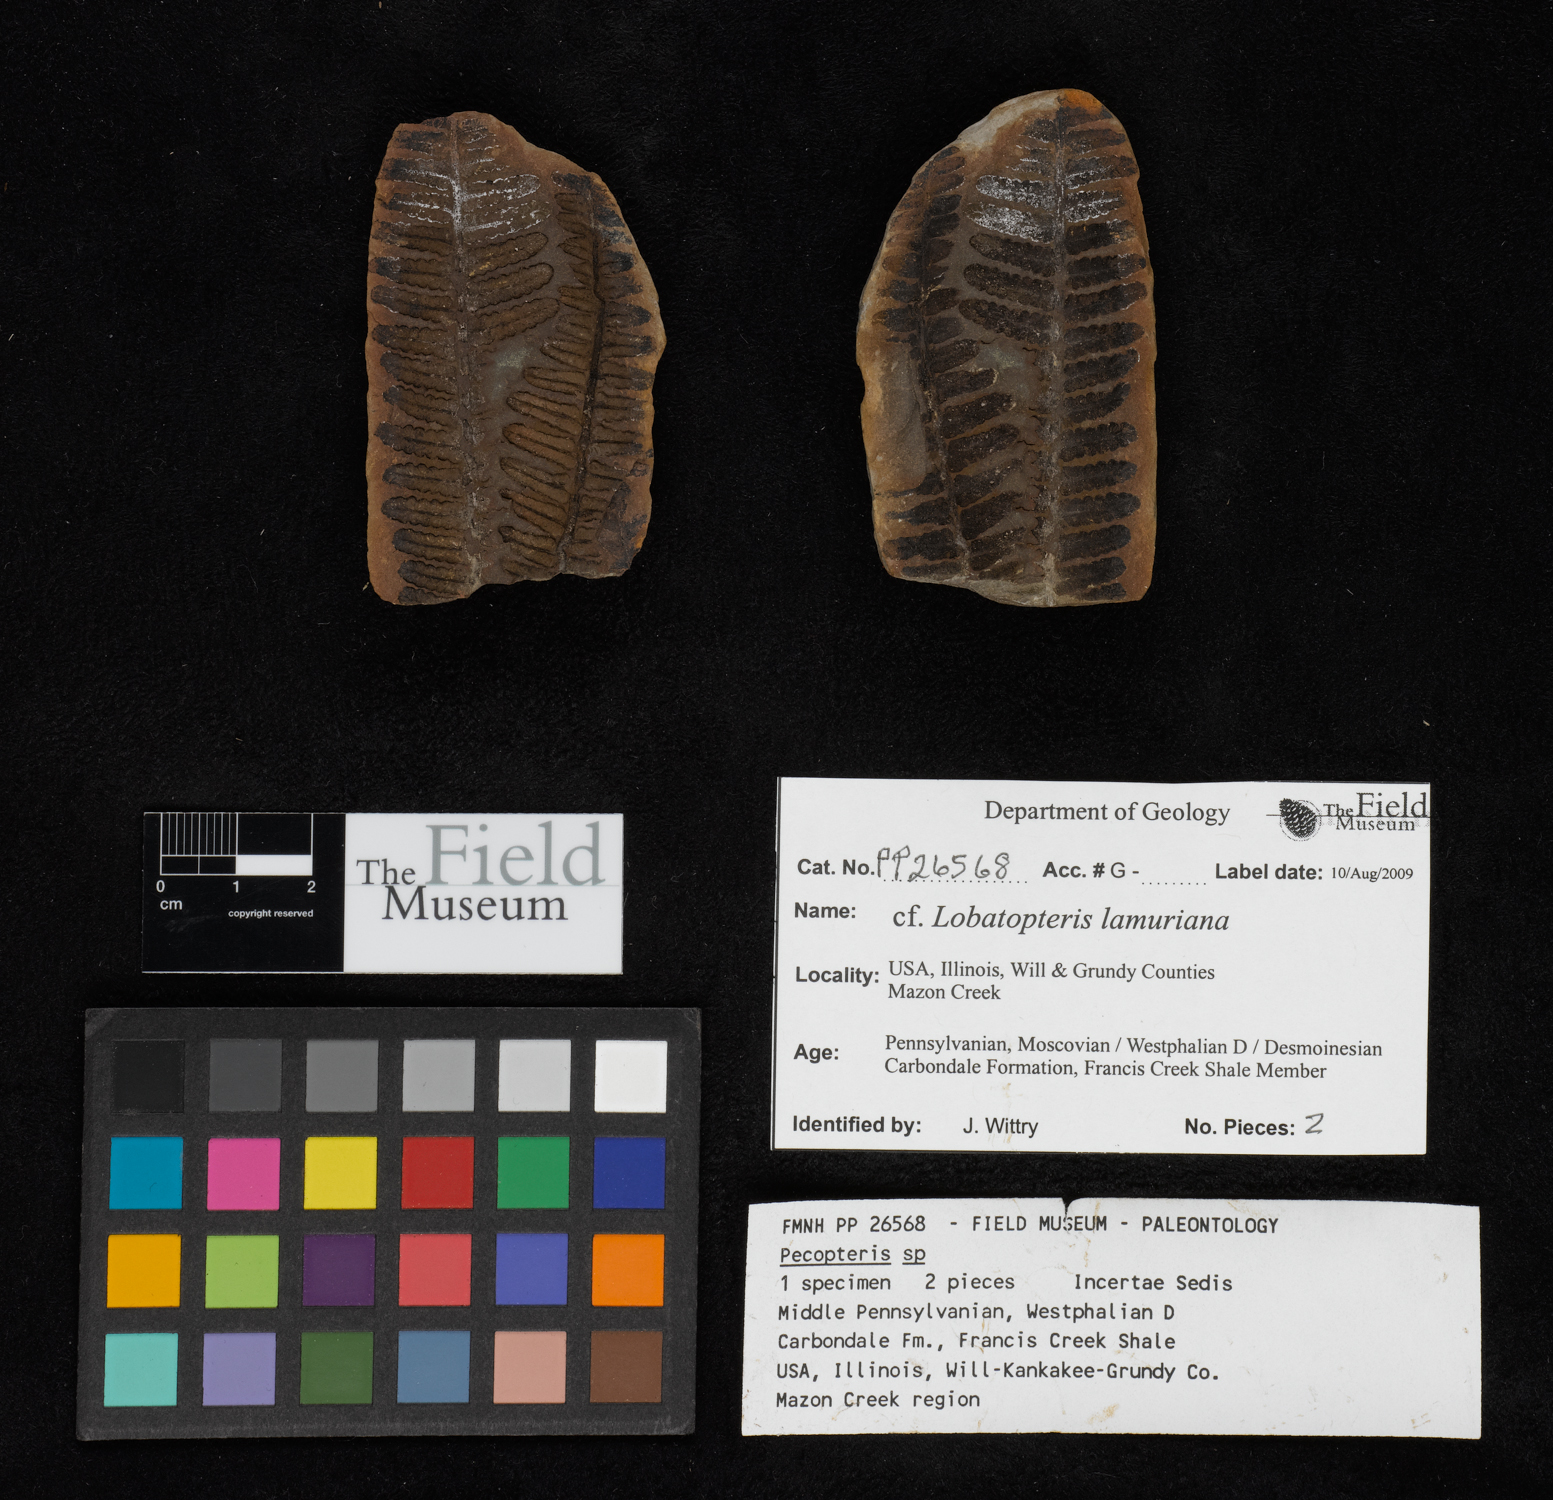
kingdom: Plantae
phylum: Tracheophyta
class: Polypodiopsida
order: Marattiales
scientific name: Marattiales
